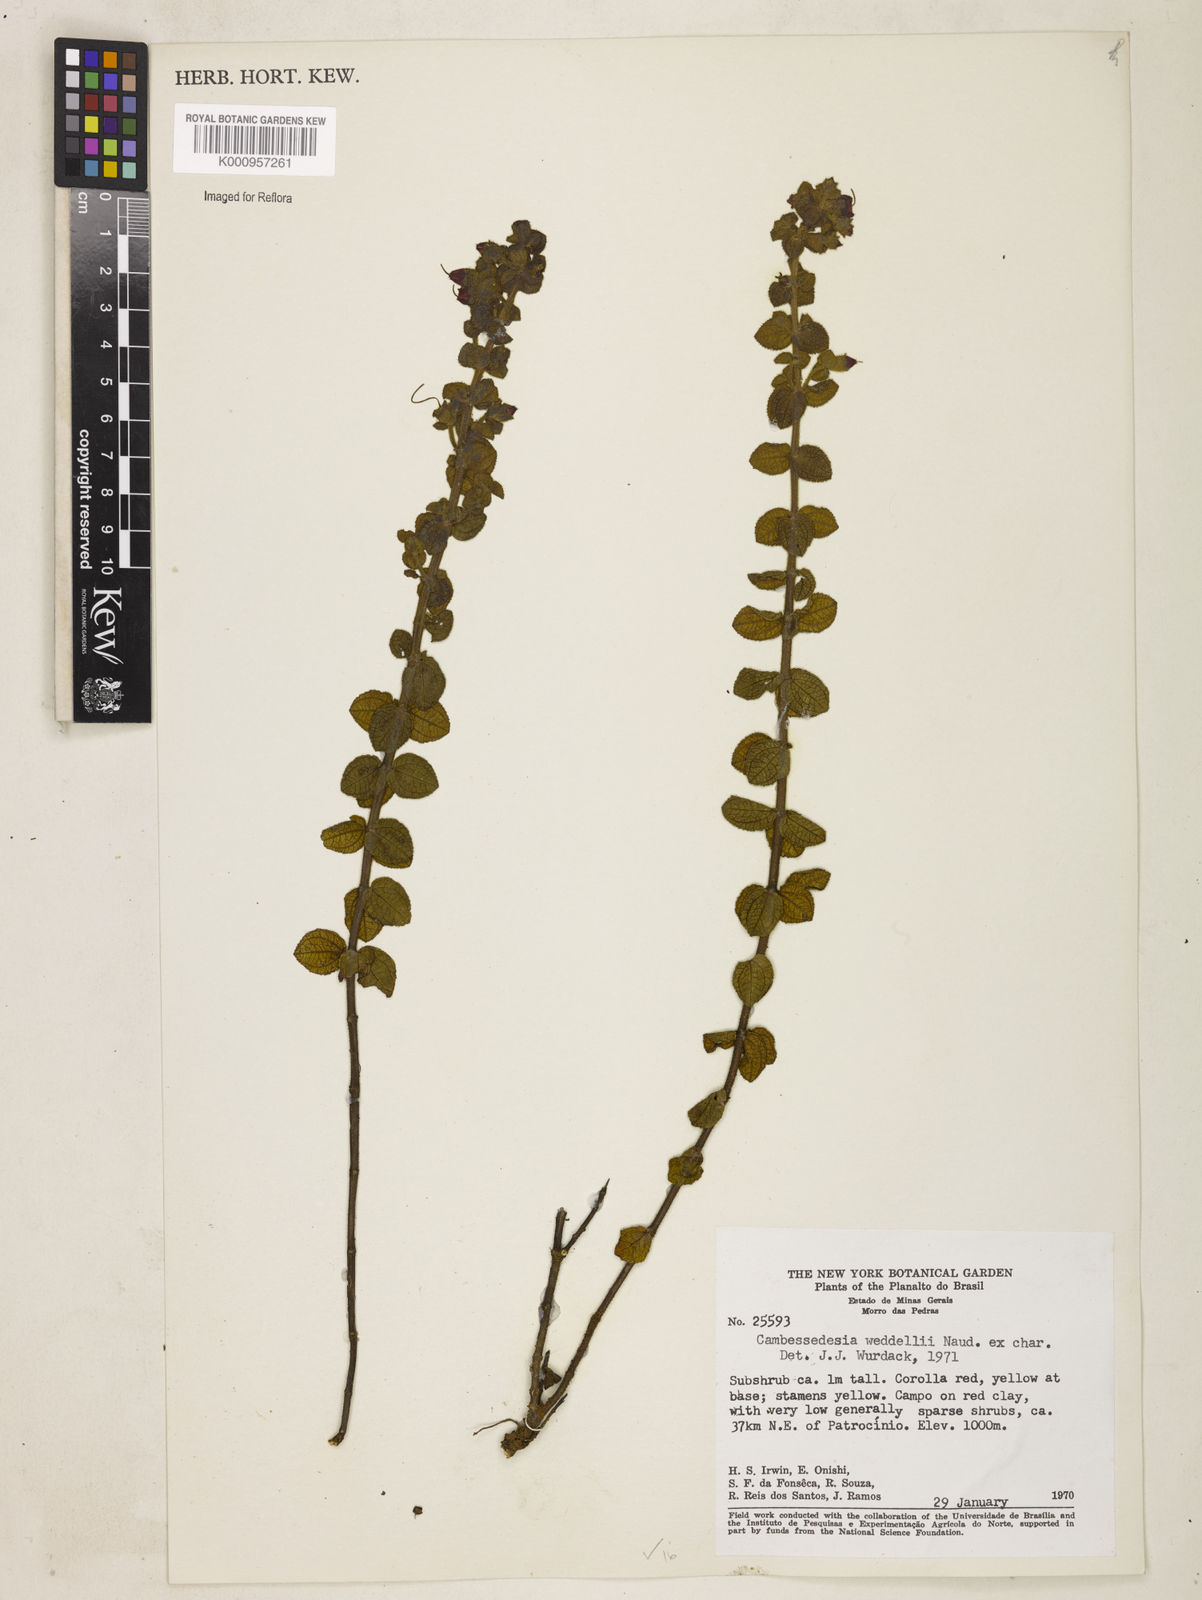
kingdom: Plantae
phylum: Tracheophyta
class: Magnoliopsida
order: Myrtales
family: Melastomataceae
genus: Cambessedesia
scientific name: Cambessedesia weddellii
